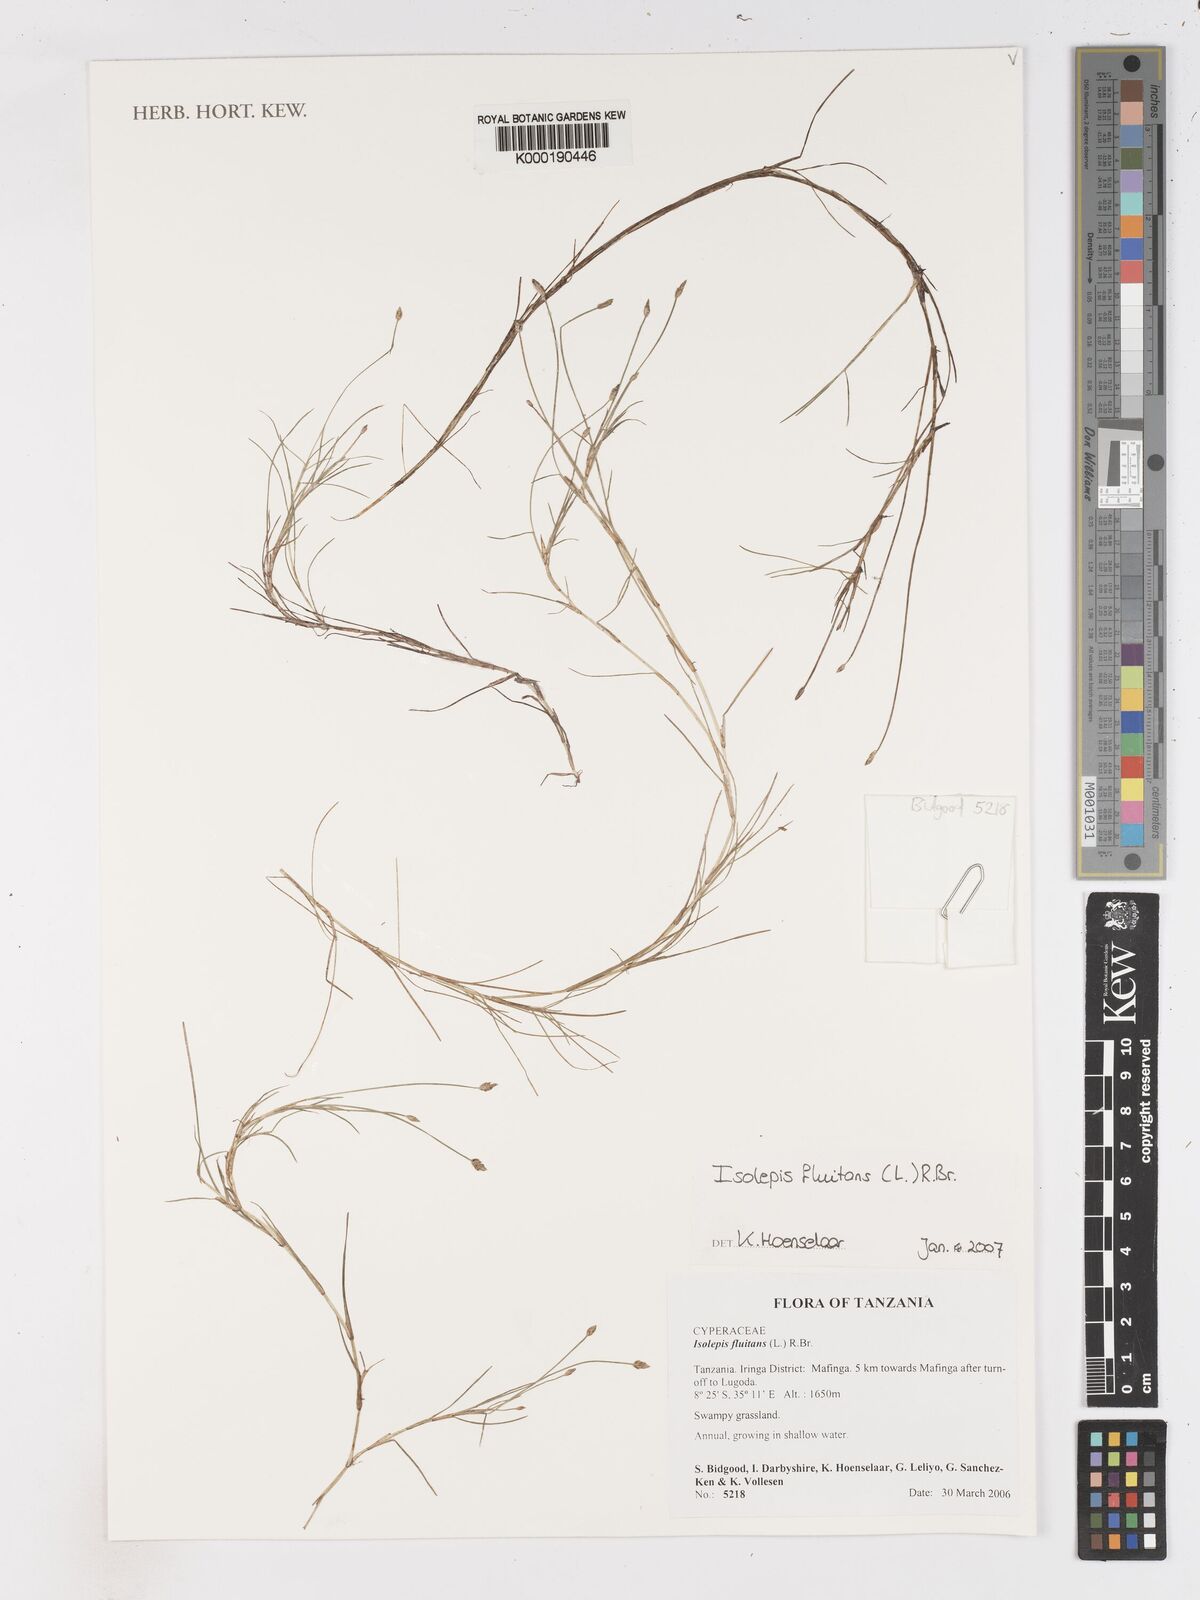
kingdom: Plantae
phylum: Tracheophyta
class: Liliopsida
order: Poales
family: Cyperaceae
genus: Isolepis
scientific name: Isolepis fluitans
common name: Floating club-rush
